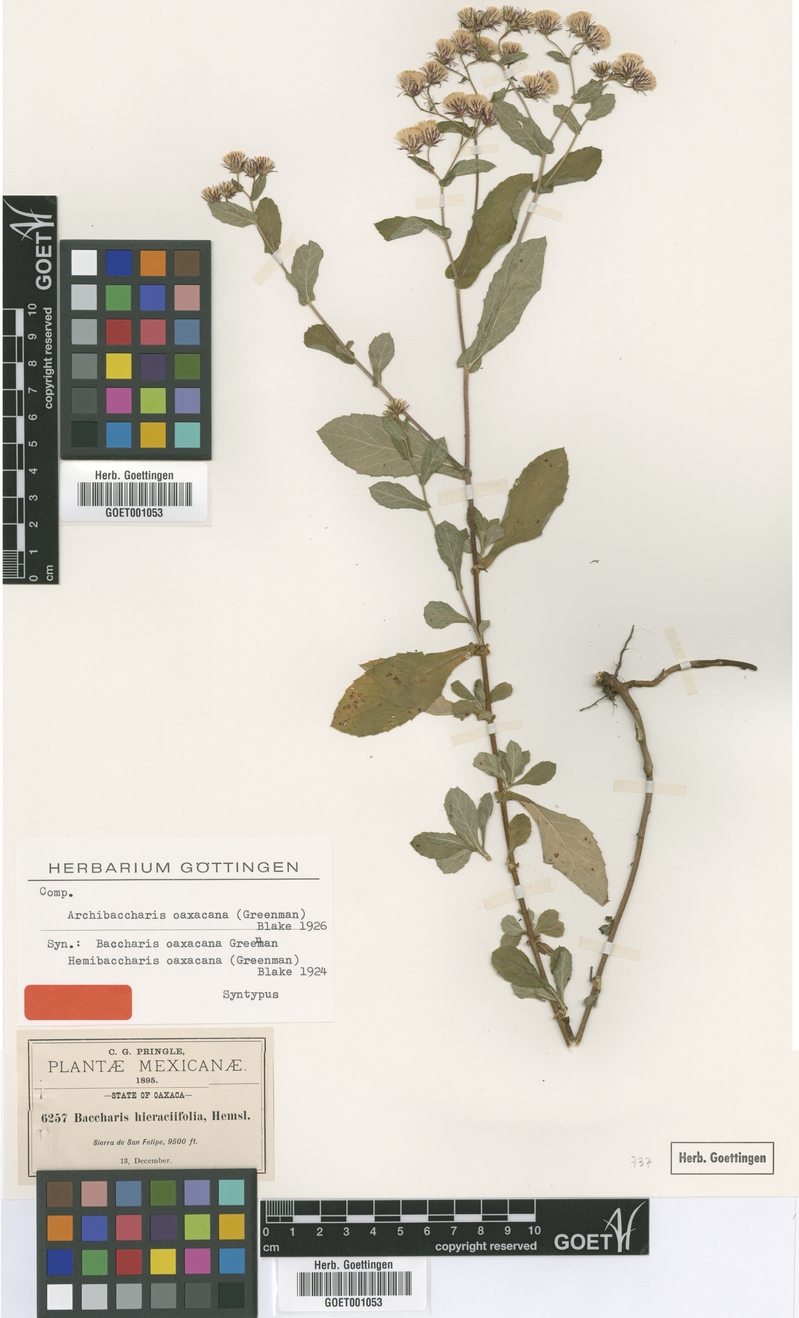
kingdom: Plantae
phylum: Tracheophyta
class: Magnoliopsida
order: Asterales
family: Asteraceae
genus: Archibaccharis
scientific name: Archibaccharis auriculata
